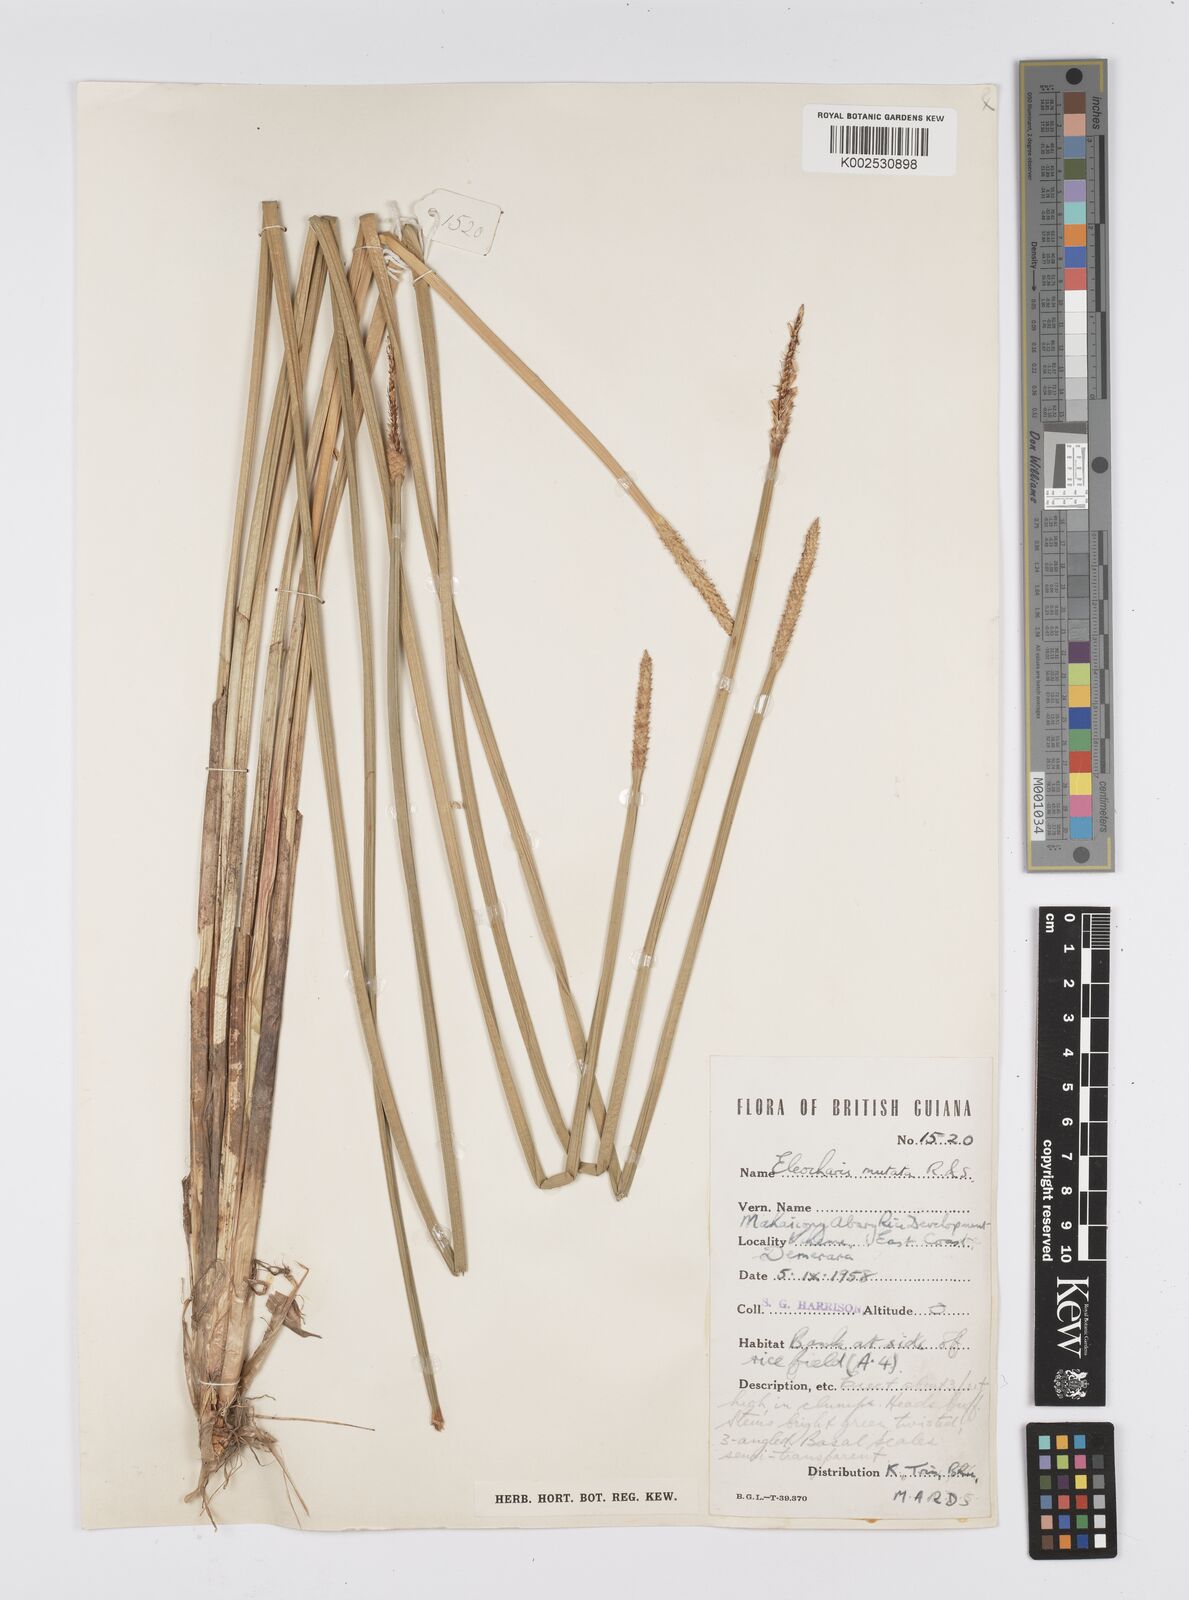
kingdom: Plantae
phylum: Tracheophyta
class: Liliopsida
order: Poales
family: Cyperaceae
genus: Eleocharis
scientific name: Eleocharis mutata
